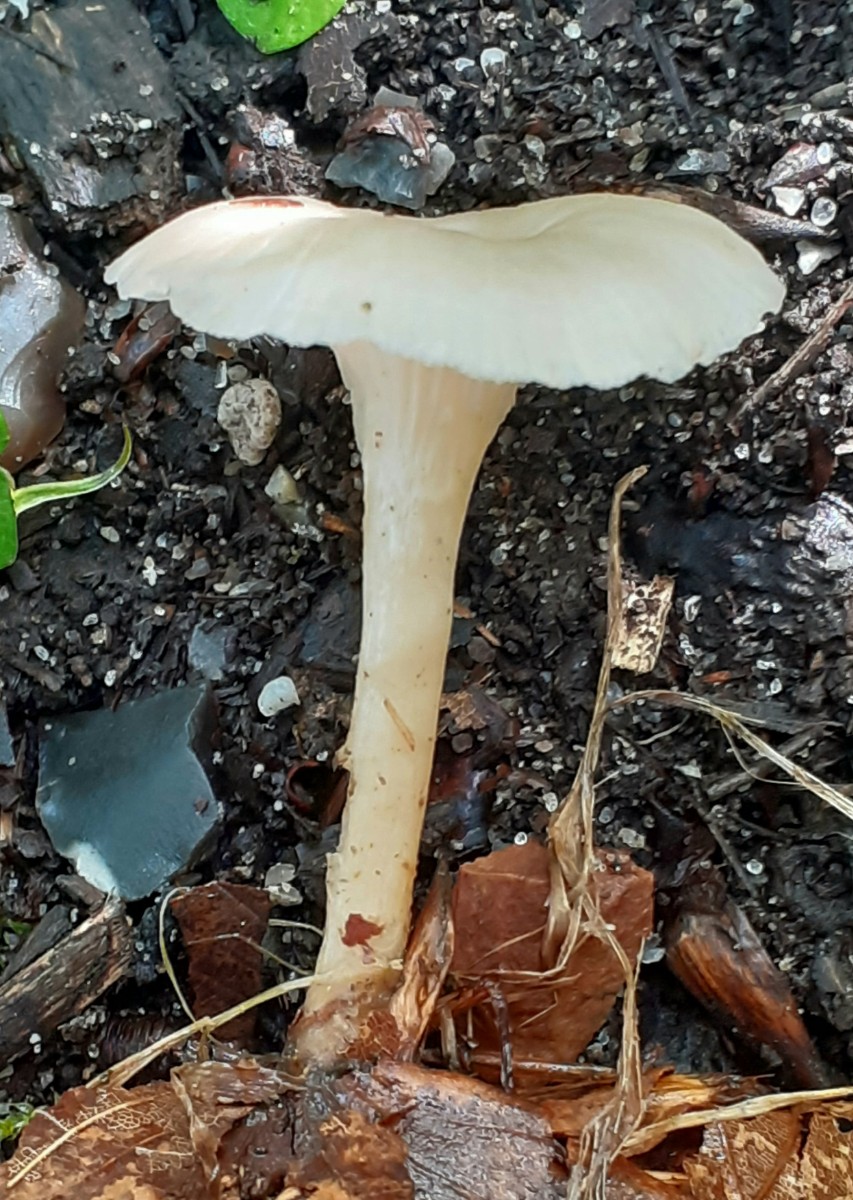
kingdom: Fungi
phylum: Basidiomycota
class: Agaricomycetes
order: Agaricales
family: Tricholomataceae
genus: Clitocybe
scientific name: Clitocybe phaeophthalma
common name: stinkende tragthat
